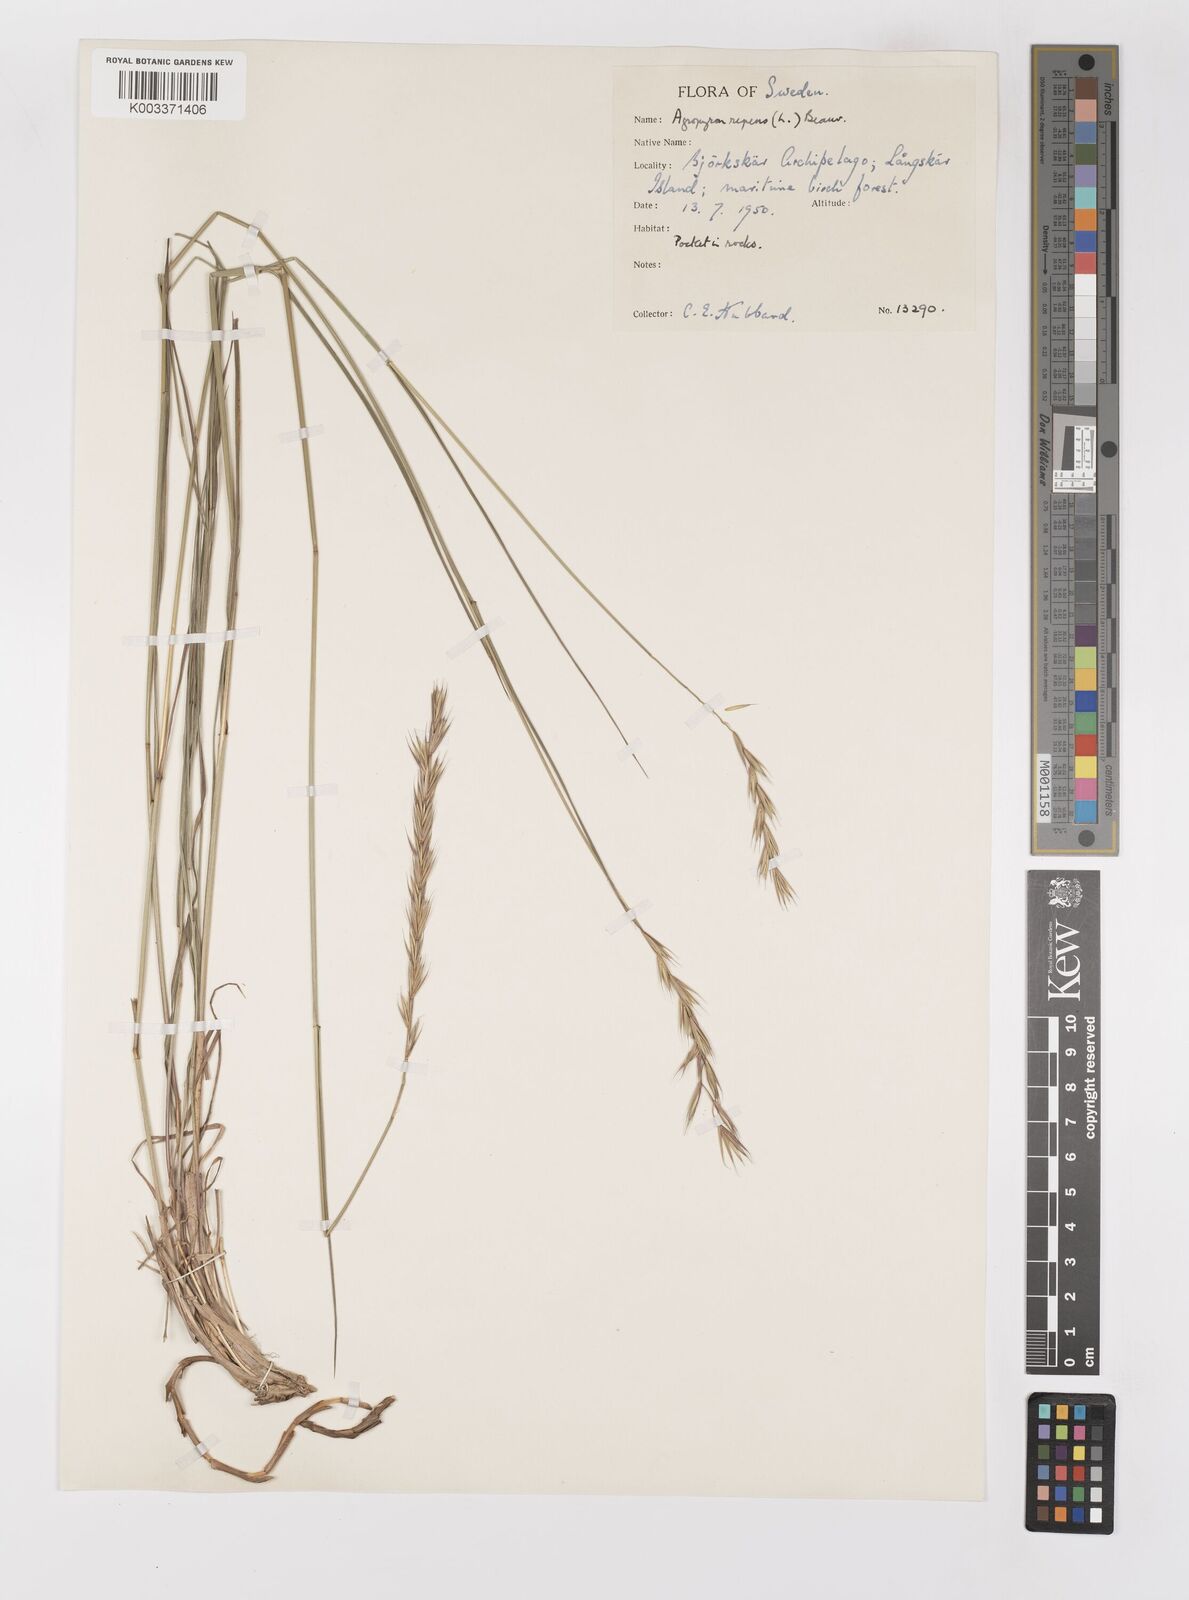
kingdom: Plantae
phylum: Tracheophyta
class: Liliopsida
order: Poales
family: Poaceae
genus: Elymus
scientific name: Elymus repens
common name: Quackgrass
